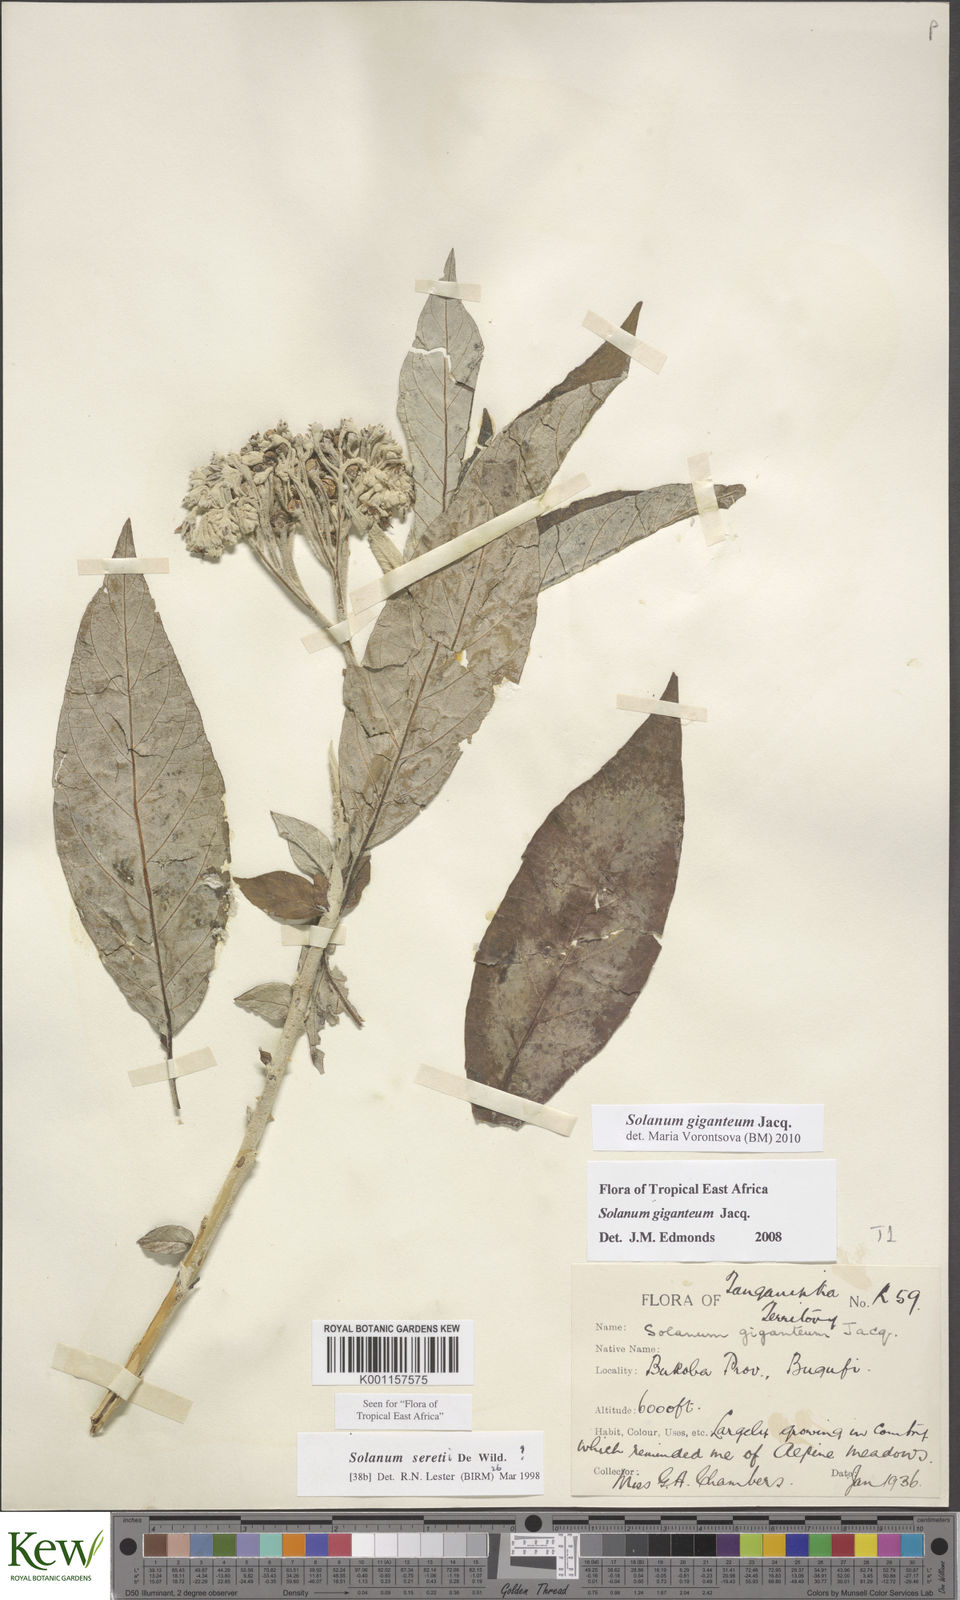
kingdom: Plantae
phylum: Tracheophyta
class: Magnoliopsida
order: Solanales
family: Solanaceae
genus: Solanum
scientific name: Solanum giganteum
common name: Healing-leaf-tree
